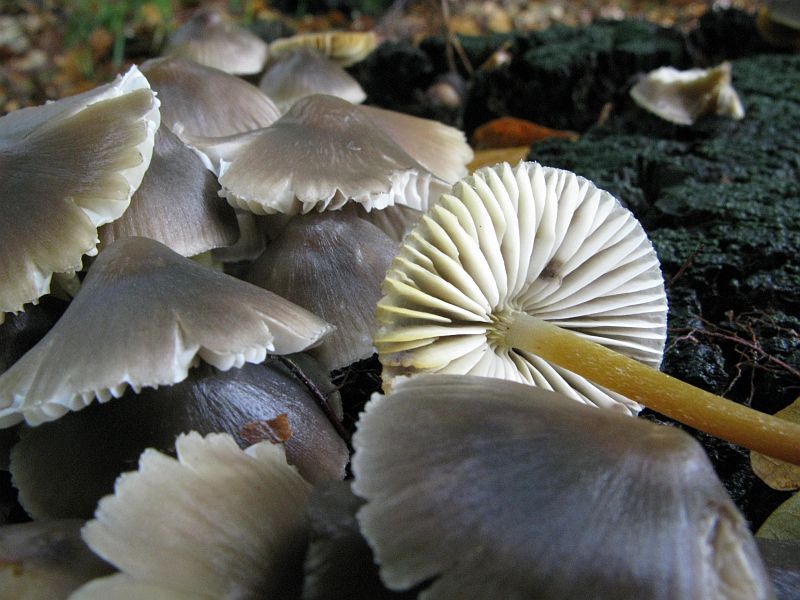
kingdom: Fungi
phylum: Basidiomycota
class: Agaricomycetes
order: Agaricales
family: Mycenaceae
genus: Mycena
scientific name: Mycena inclinata
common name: nikkende huesvamp
